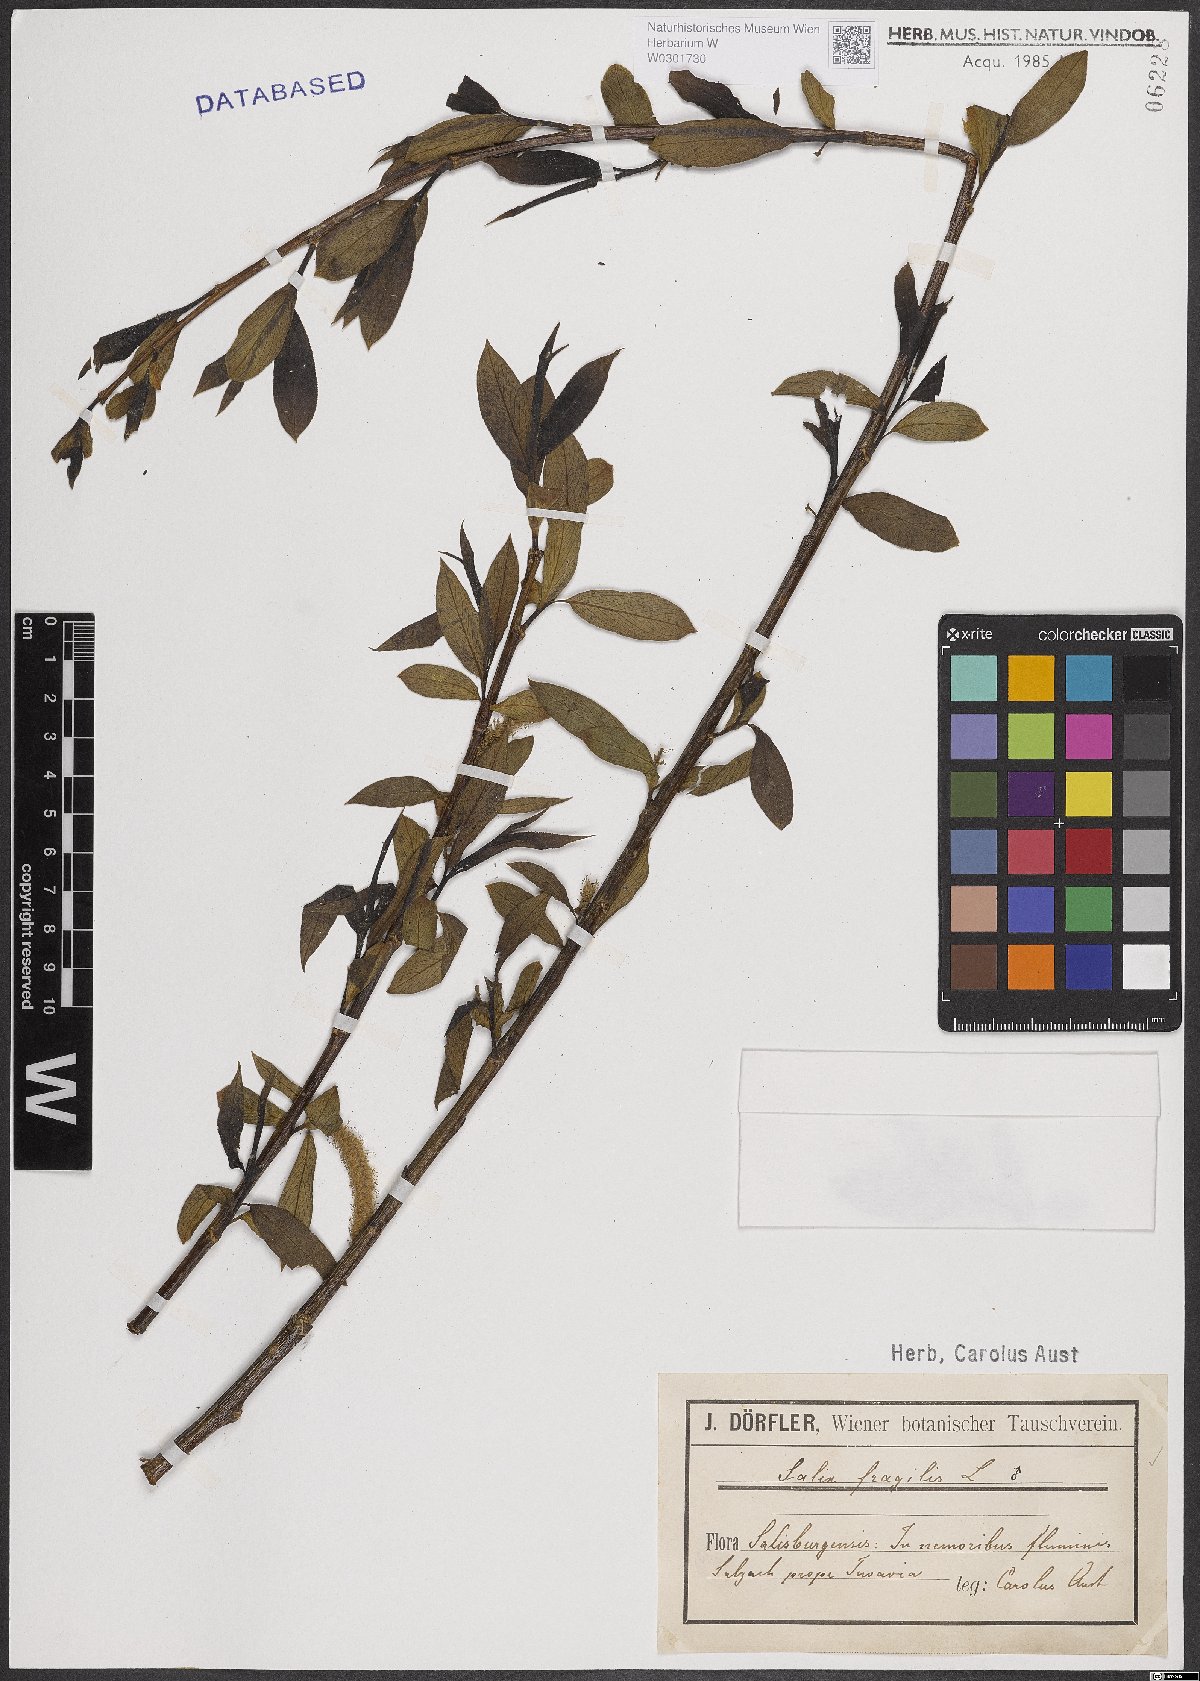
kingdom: Plantae
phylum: Tracheophyta
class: Magnoliopsida
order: Malpighiales
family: Salicaceae
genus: Salix
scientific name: Salix fragilis
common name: Crack willow
